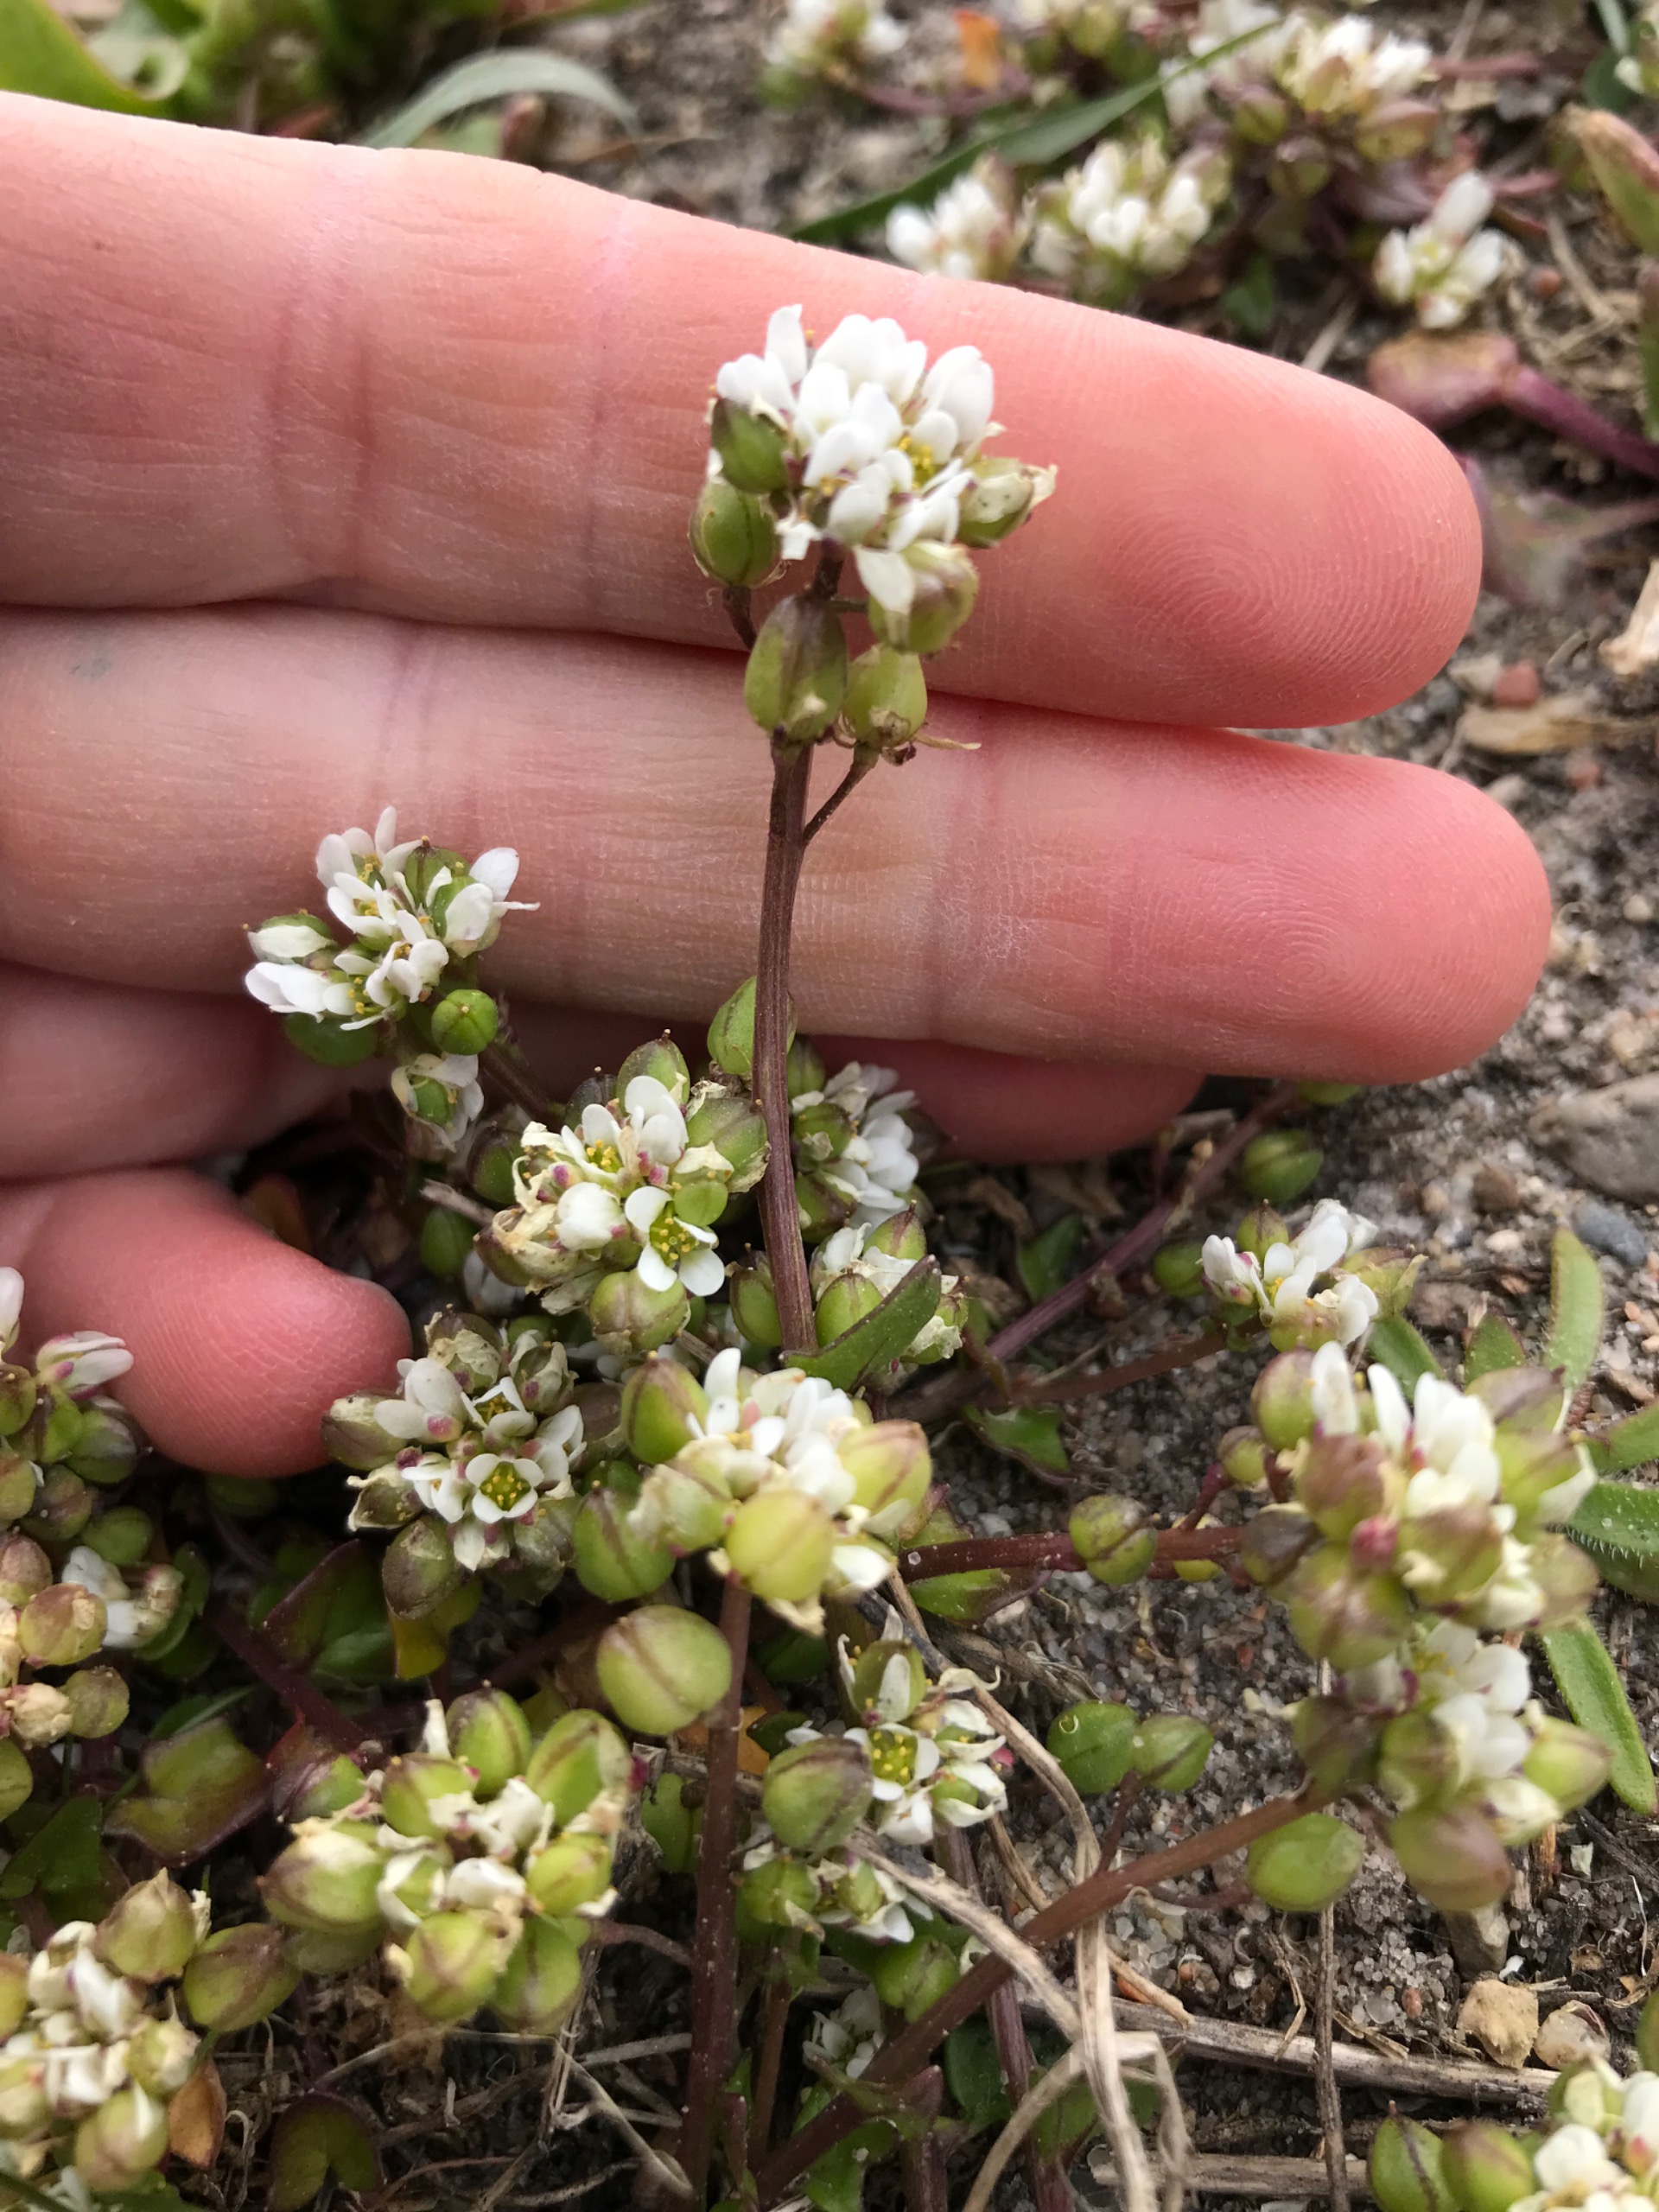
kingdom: Plantae
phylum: Tracheophyta
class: Magnoliopsida
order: Brassicales
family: Brassicaceae
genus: Cochlearia
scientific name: Cochlearia danica
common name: Dansk kokleare
